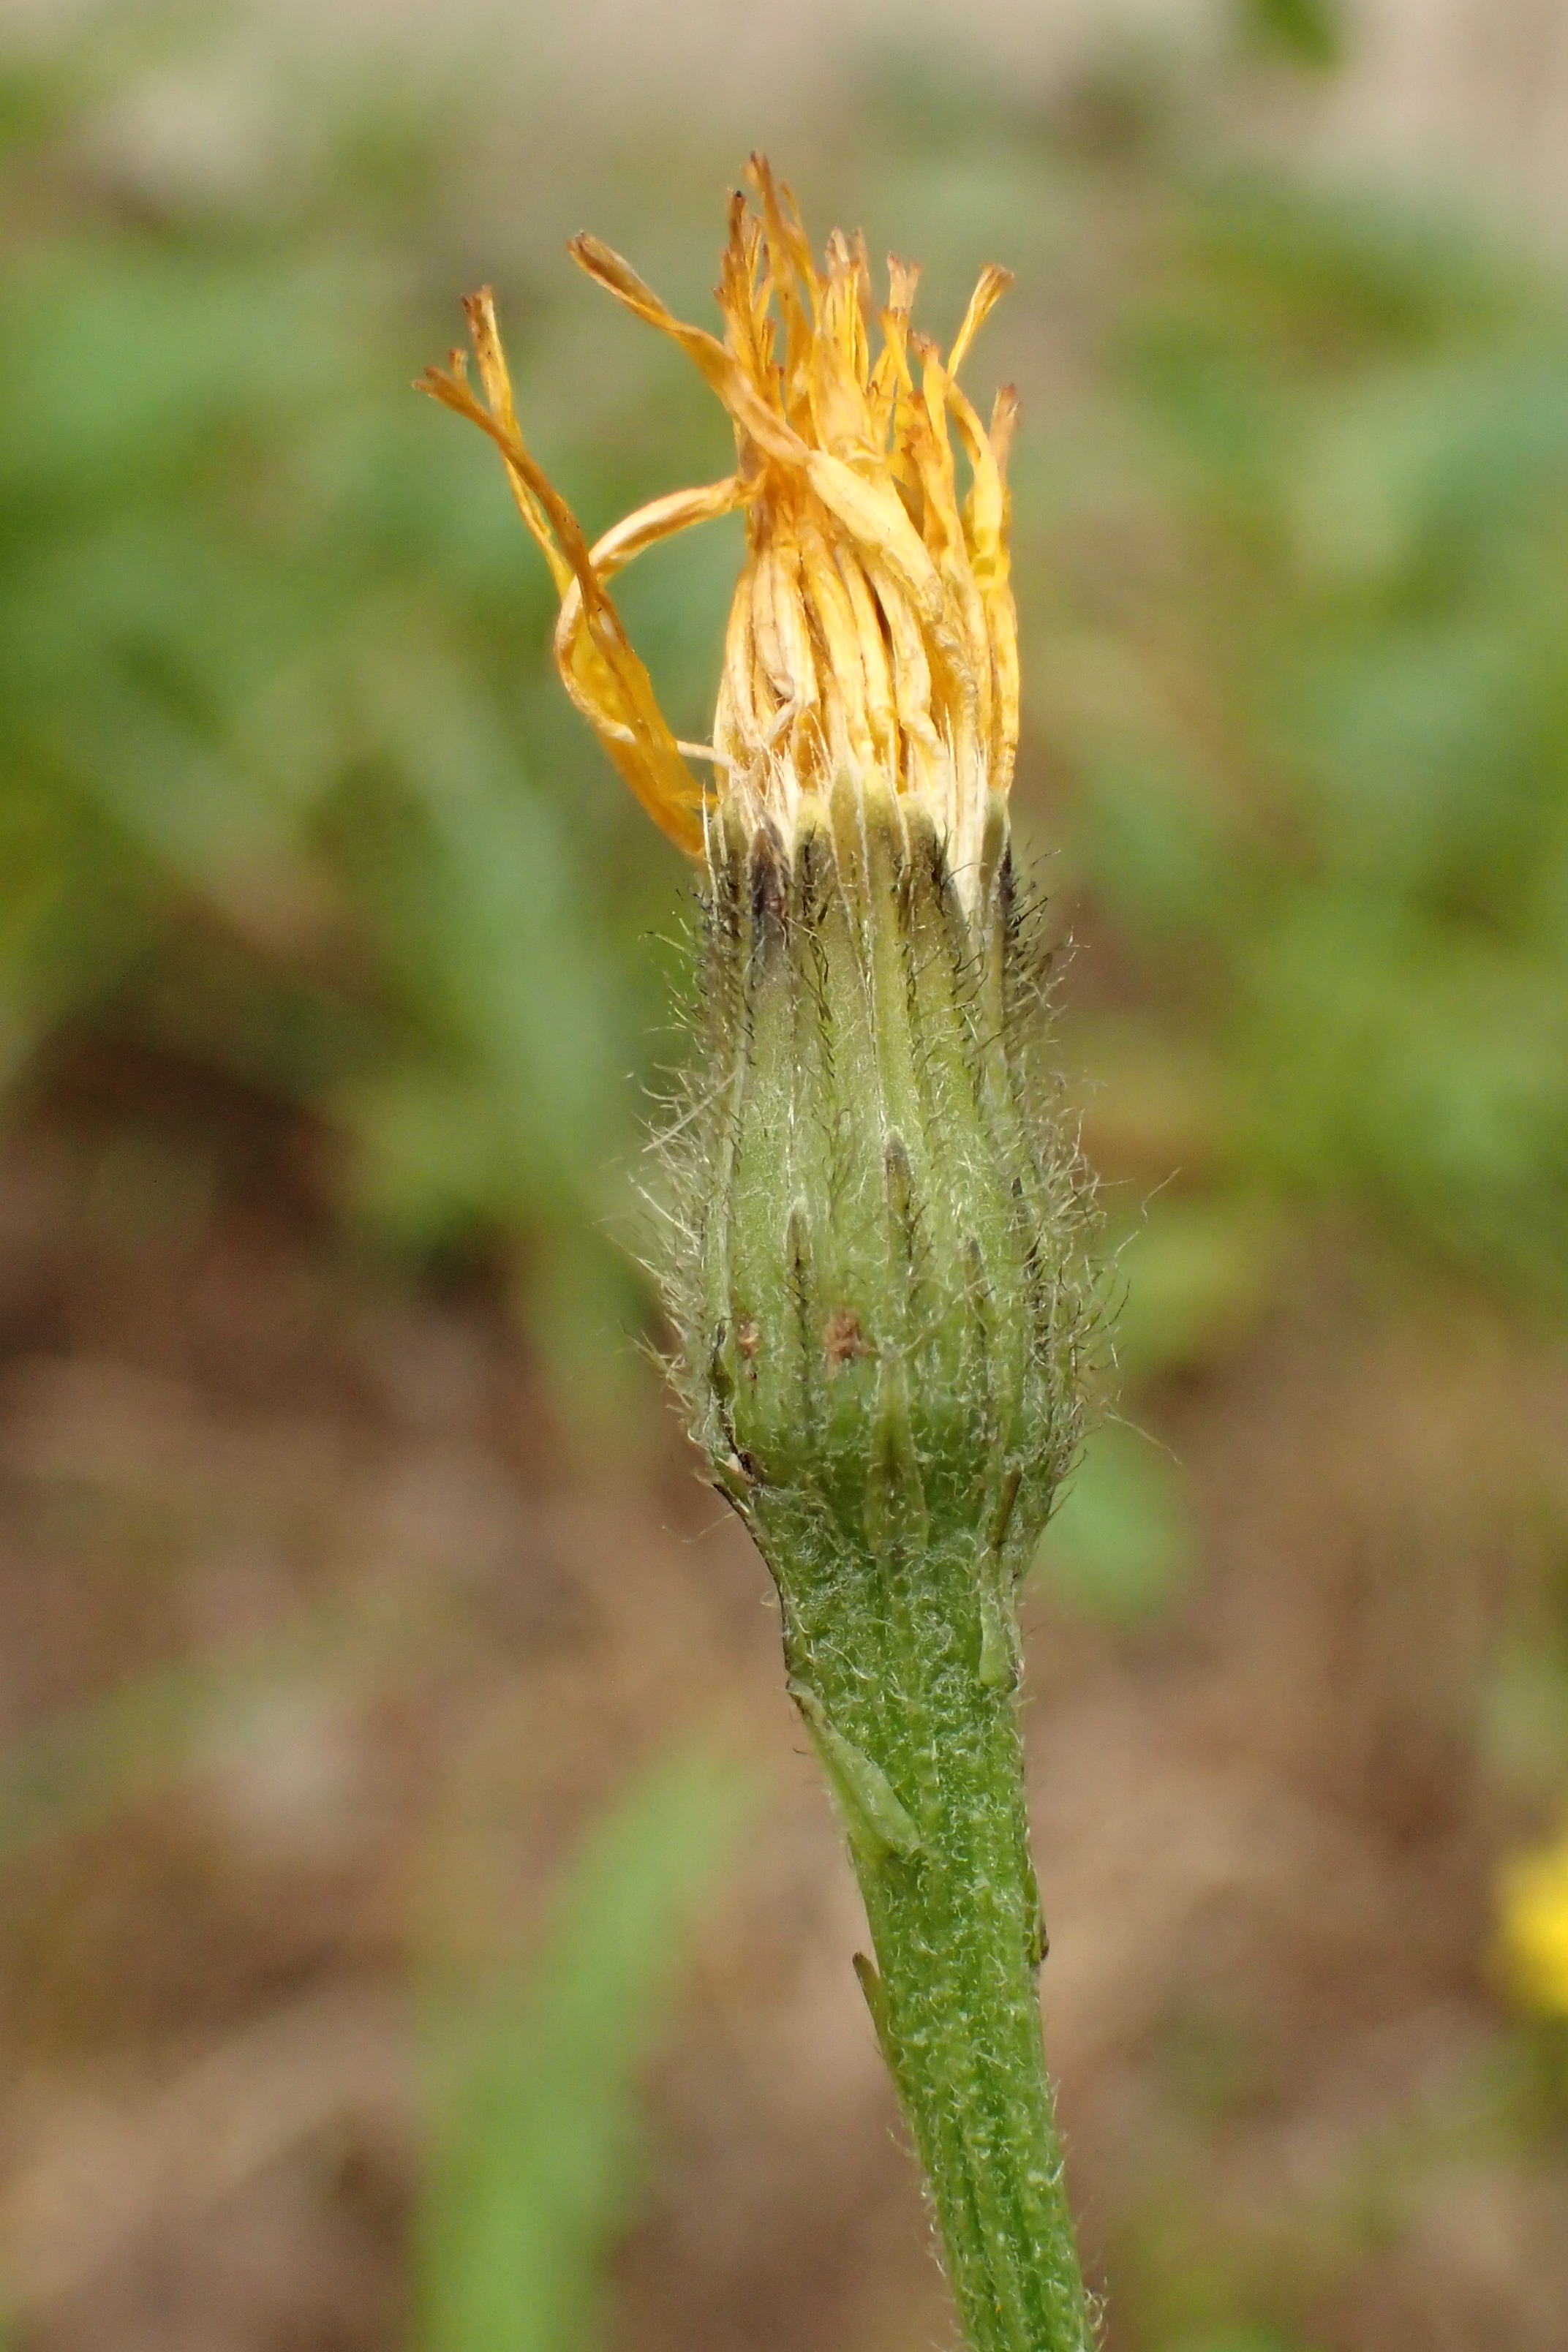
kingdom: Plantae
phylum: Tracheophyta
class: Magnoliopsida
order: Asterales
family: Asteraceae
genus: Scorzoneroides
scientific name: Scorzoneroides autumnalis
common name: Høst-borst
